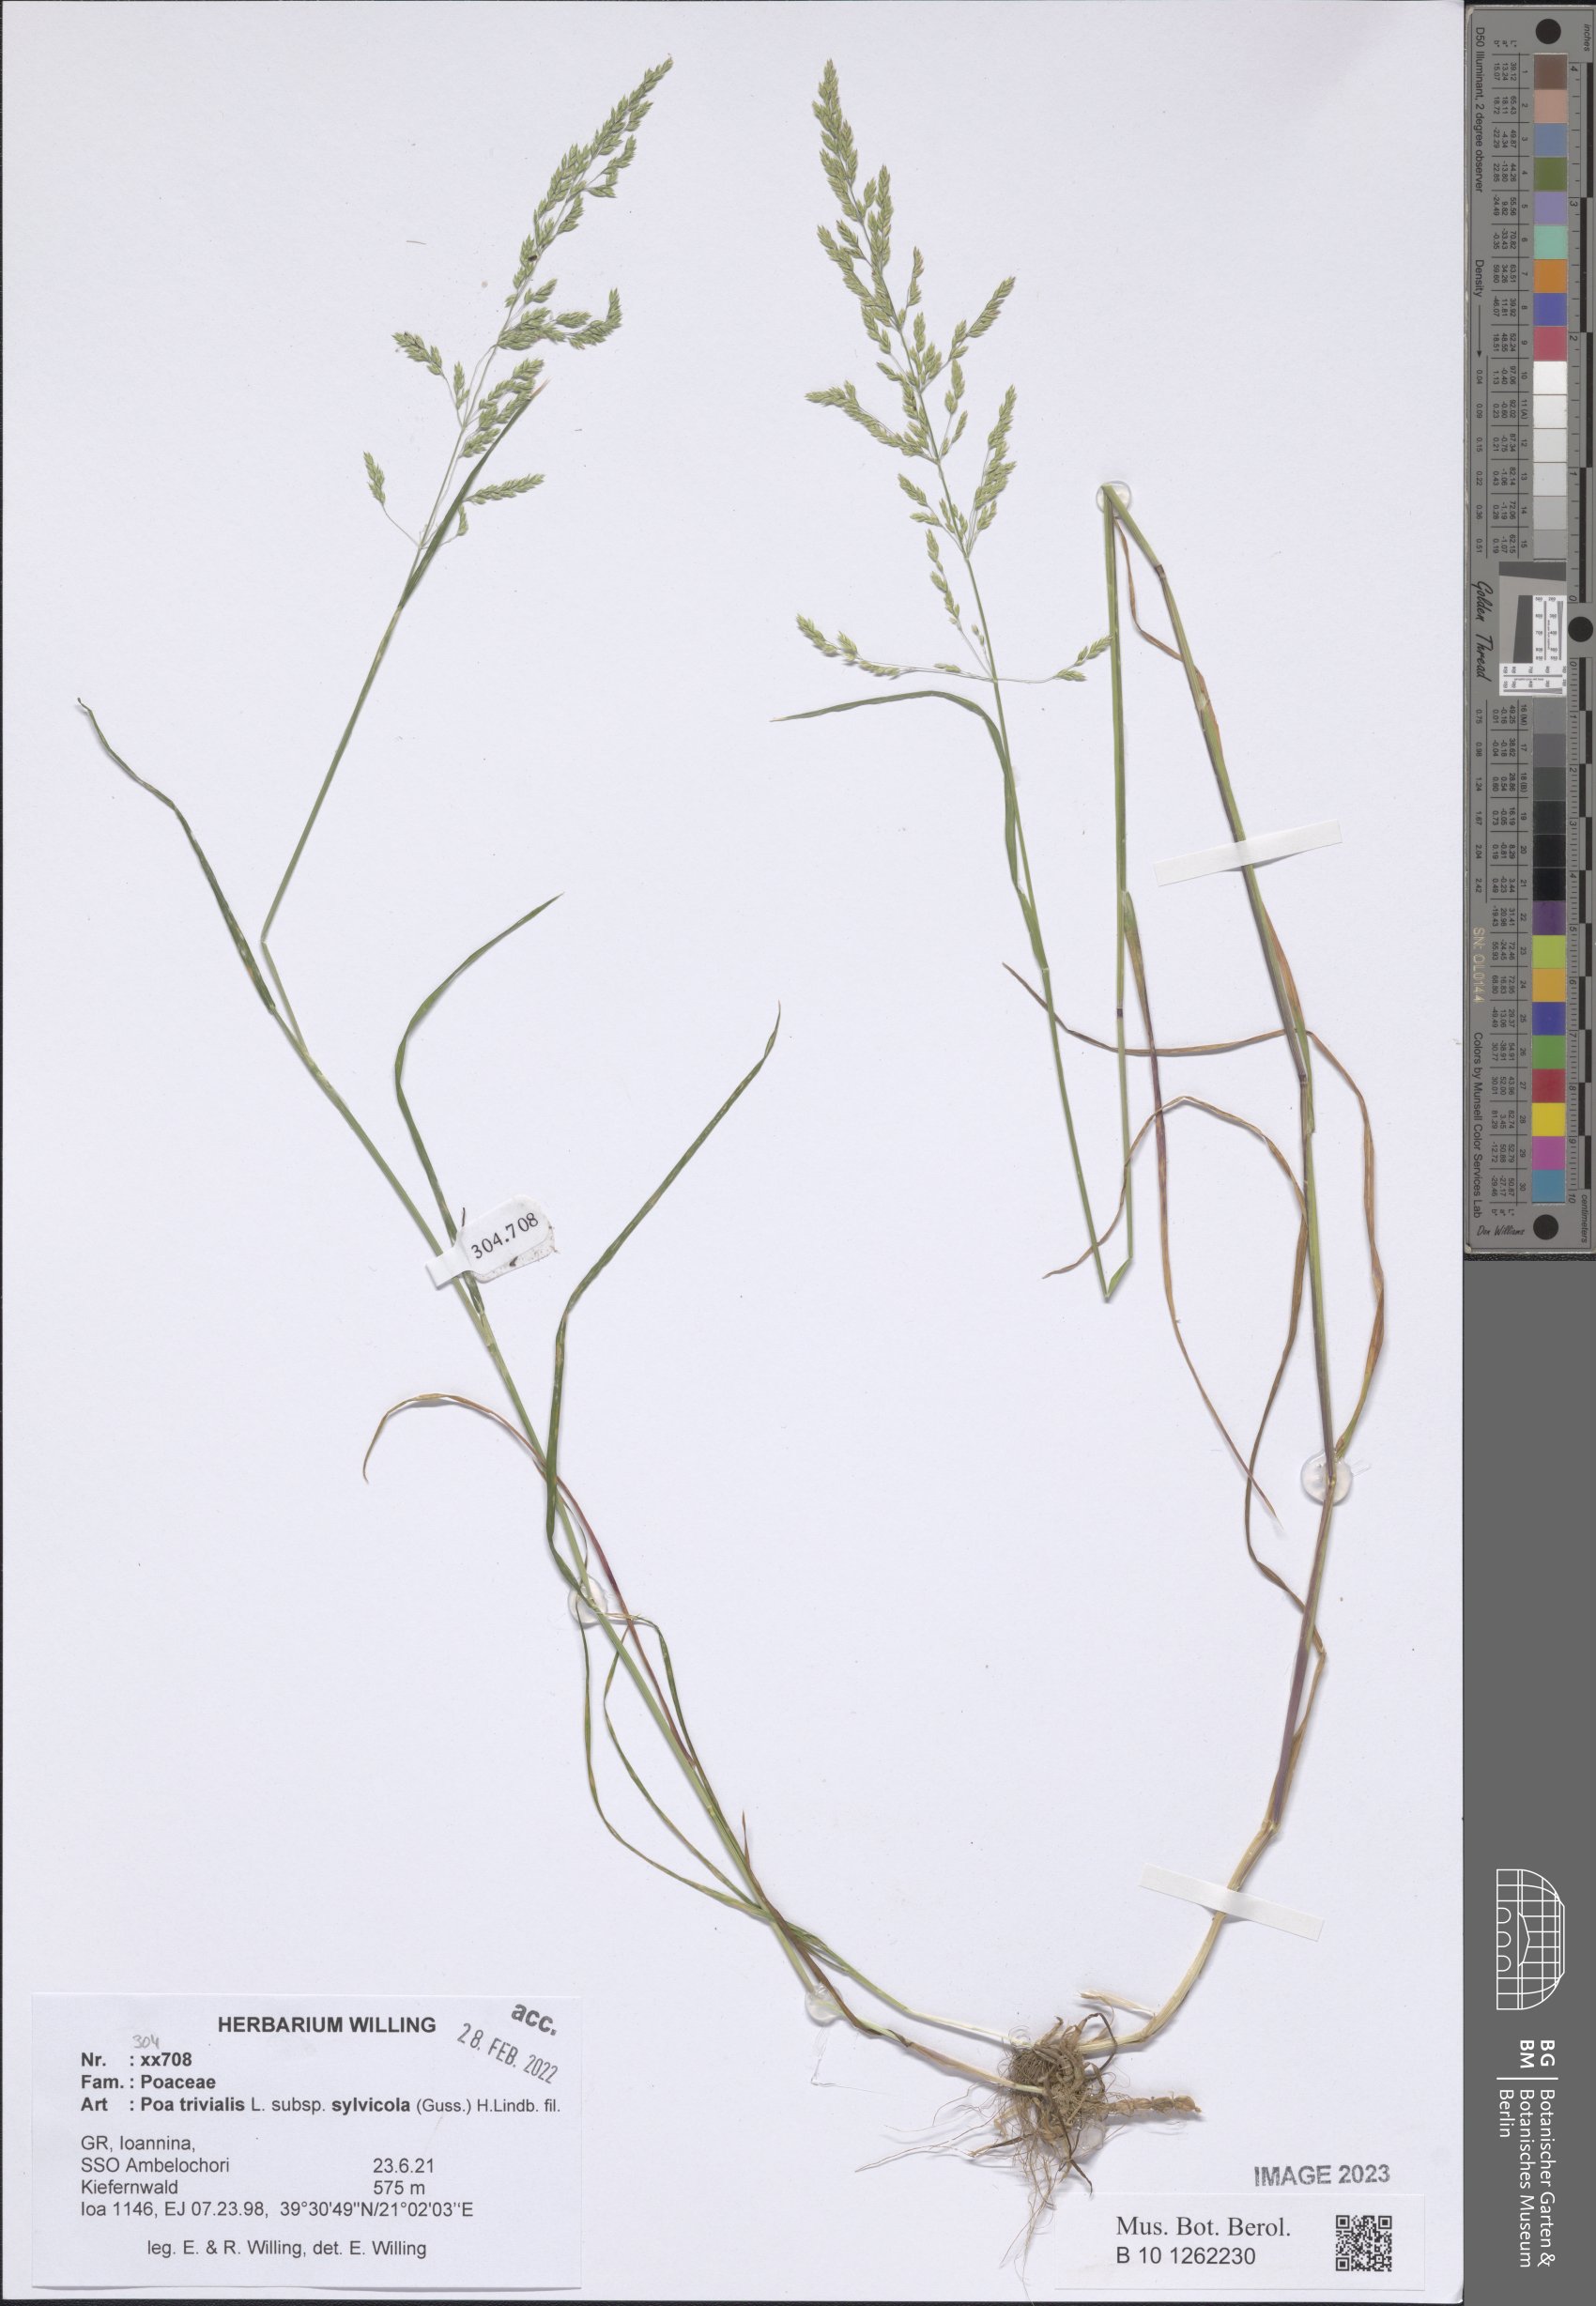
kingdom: Plantae
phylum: Tracheophyta
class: Liliopsida
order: Poales
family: Poaceae
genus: Poa
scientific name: Poa trivialis
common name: Rough bluegrass
